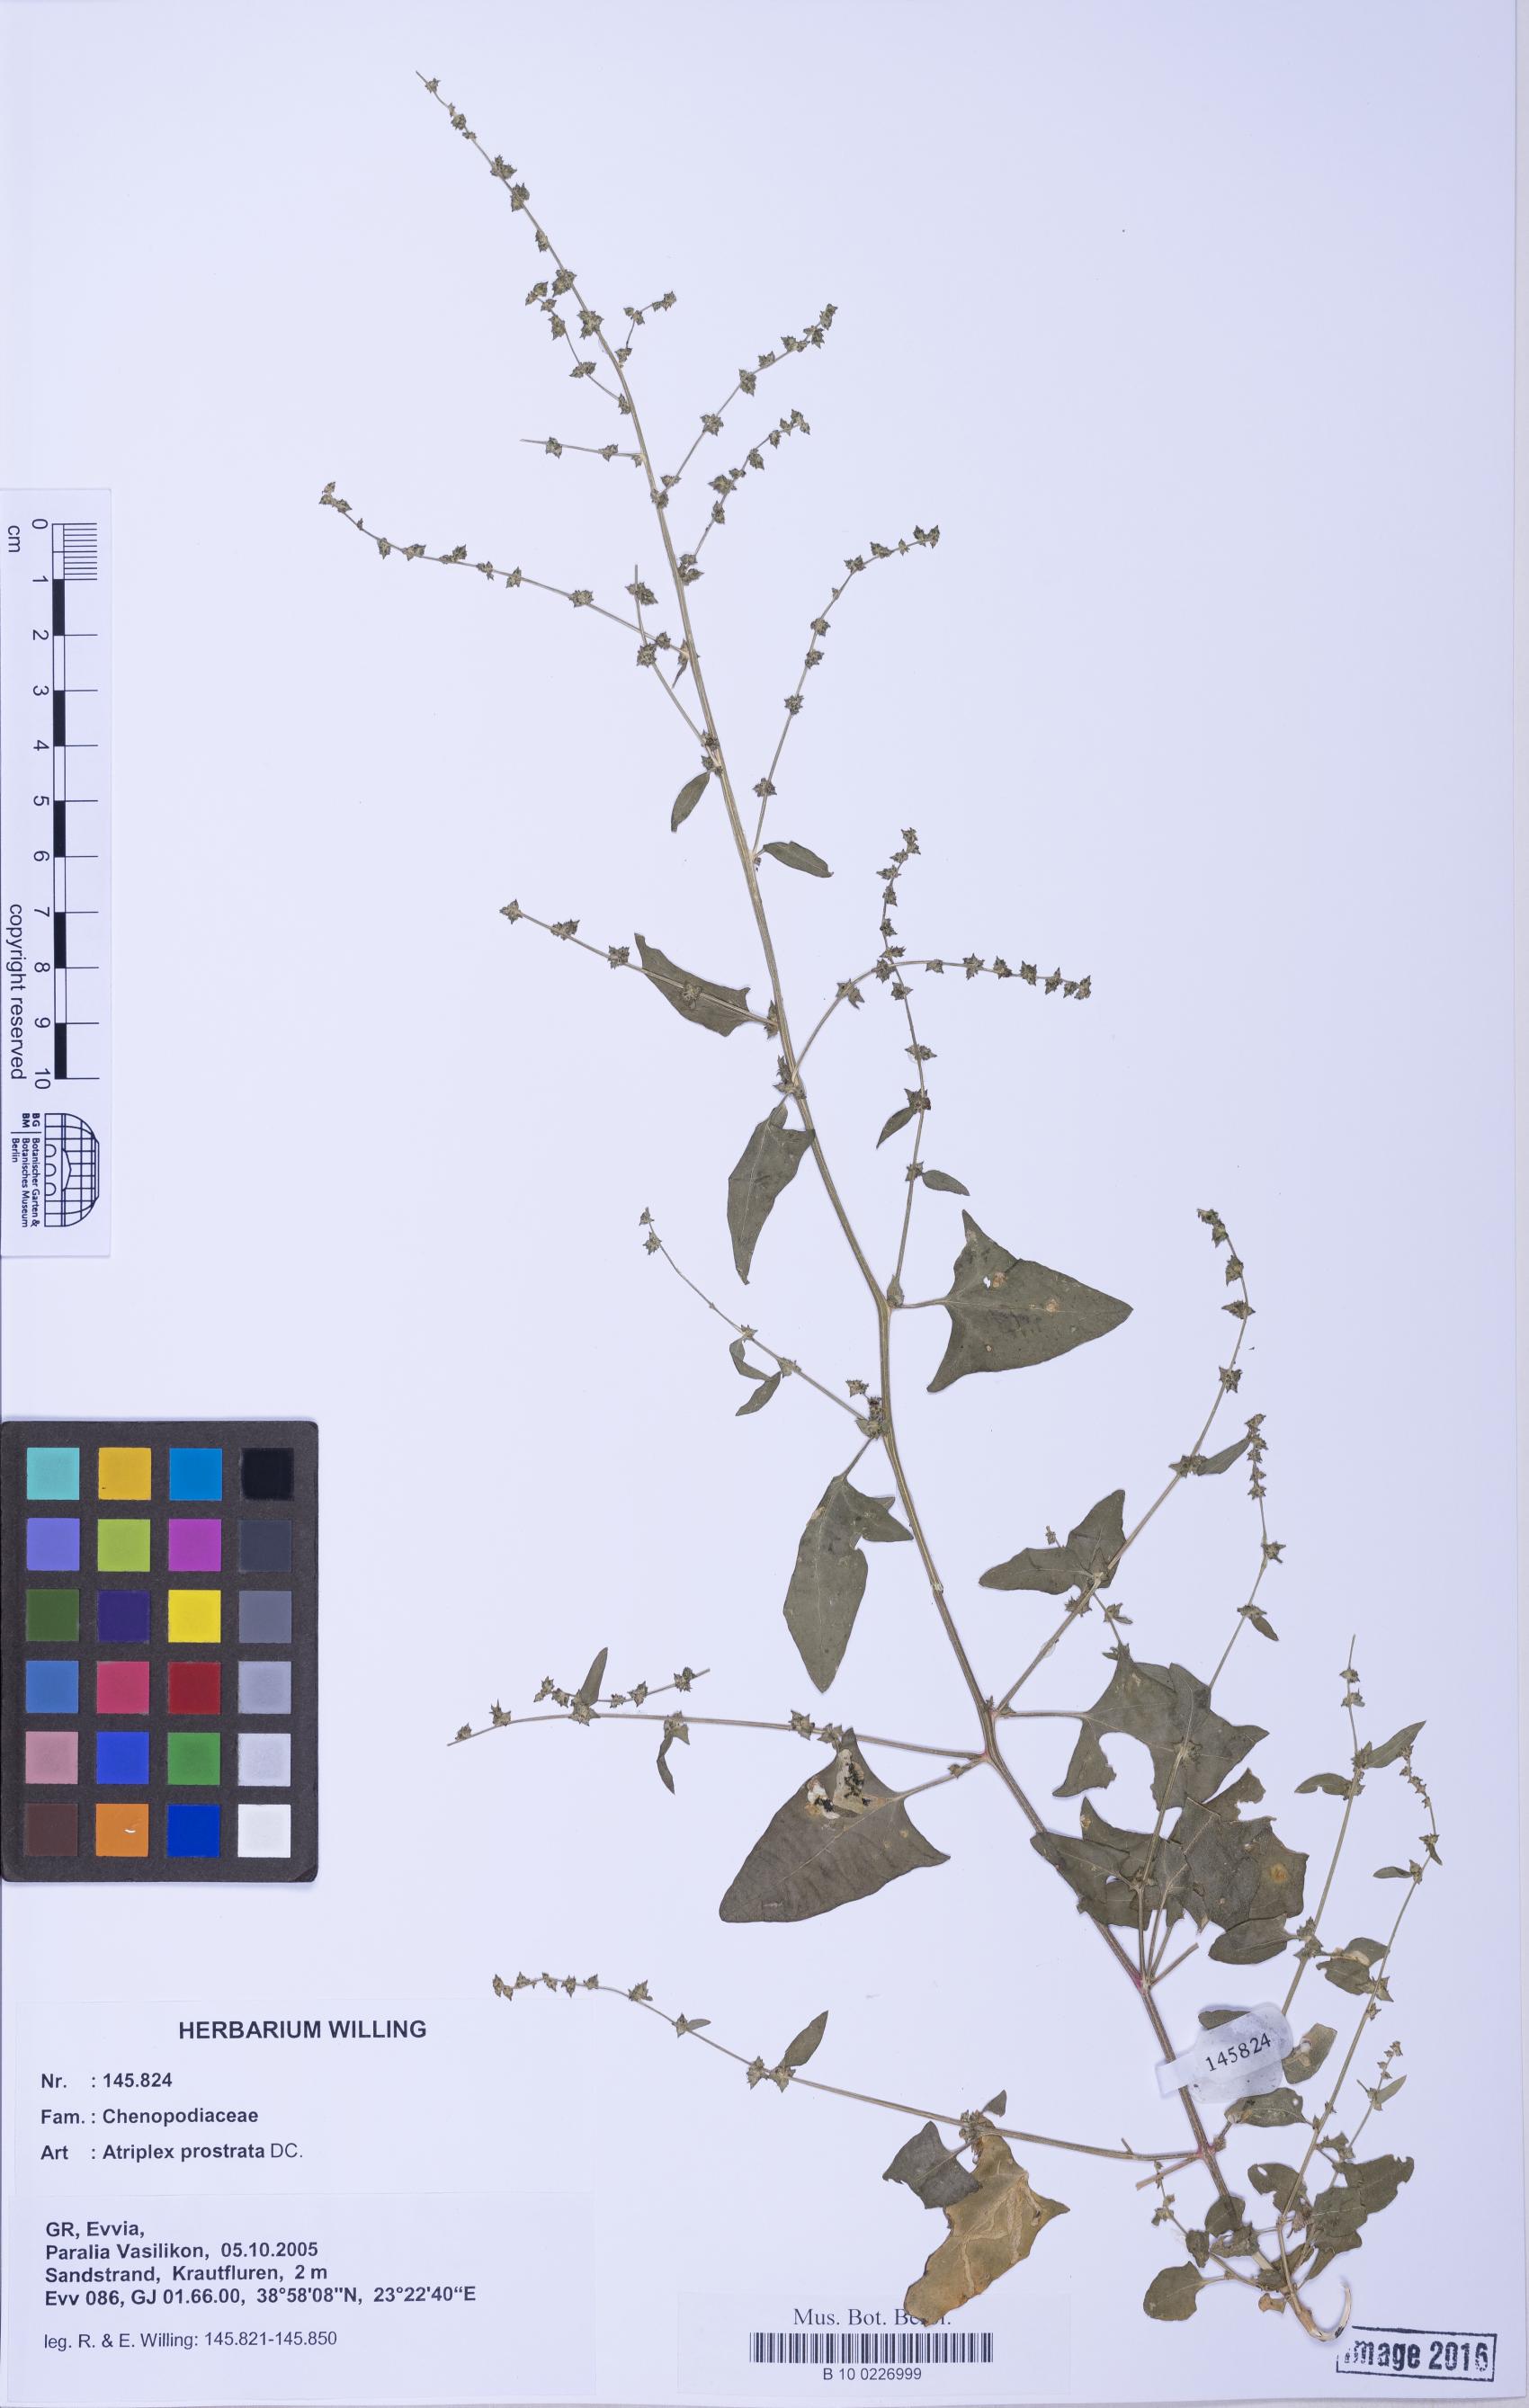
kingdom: Plantae
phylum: Tracheophyta
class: Magnoliopsida
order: Caryophyllales
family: Amaranthaceae
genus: Atriplex
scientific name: Atriplex prostrata
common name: Spear-leaved orache
